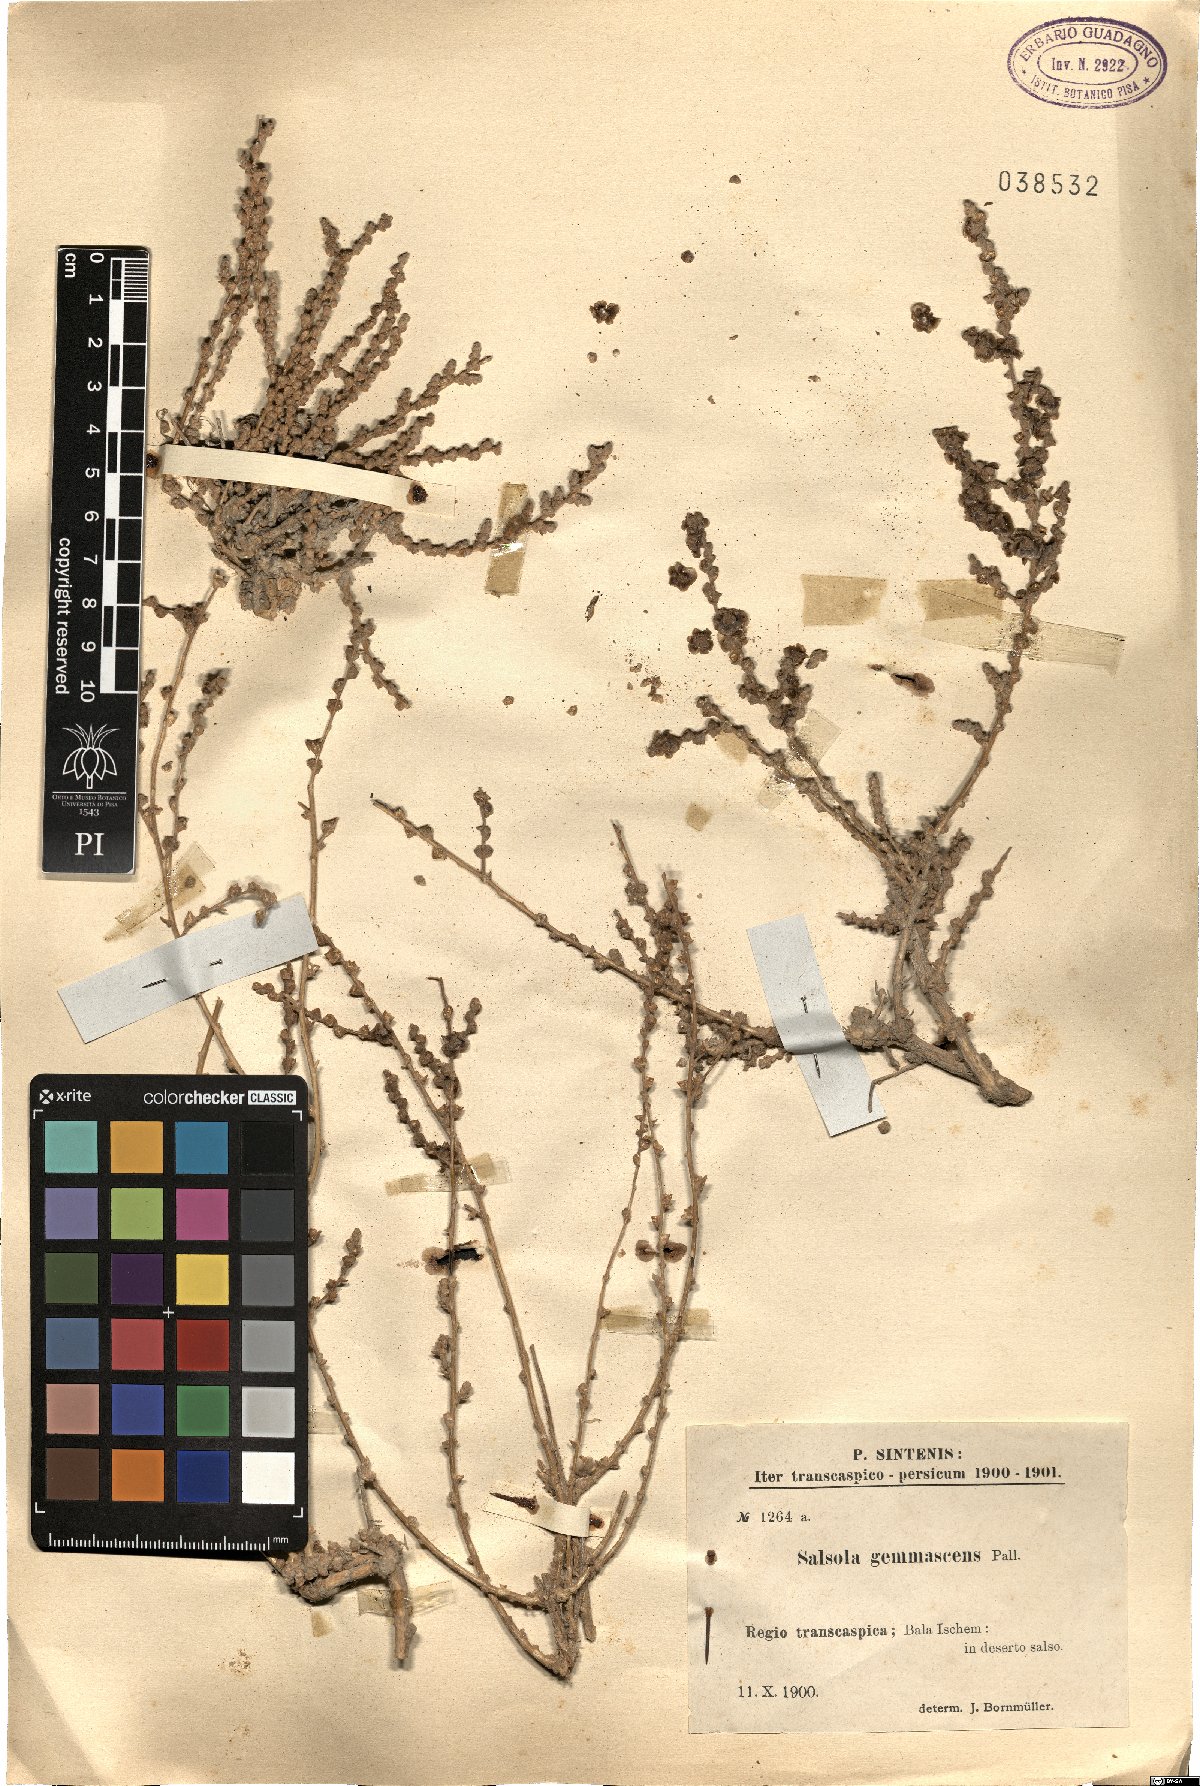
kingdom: Plantae
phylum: Tracheophyta
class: Magnoliopsida
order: Caryophyllales
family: Amaranthaceae
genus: Caroxylon
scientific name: Caroxylon gemmascens
